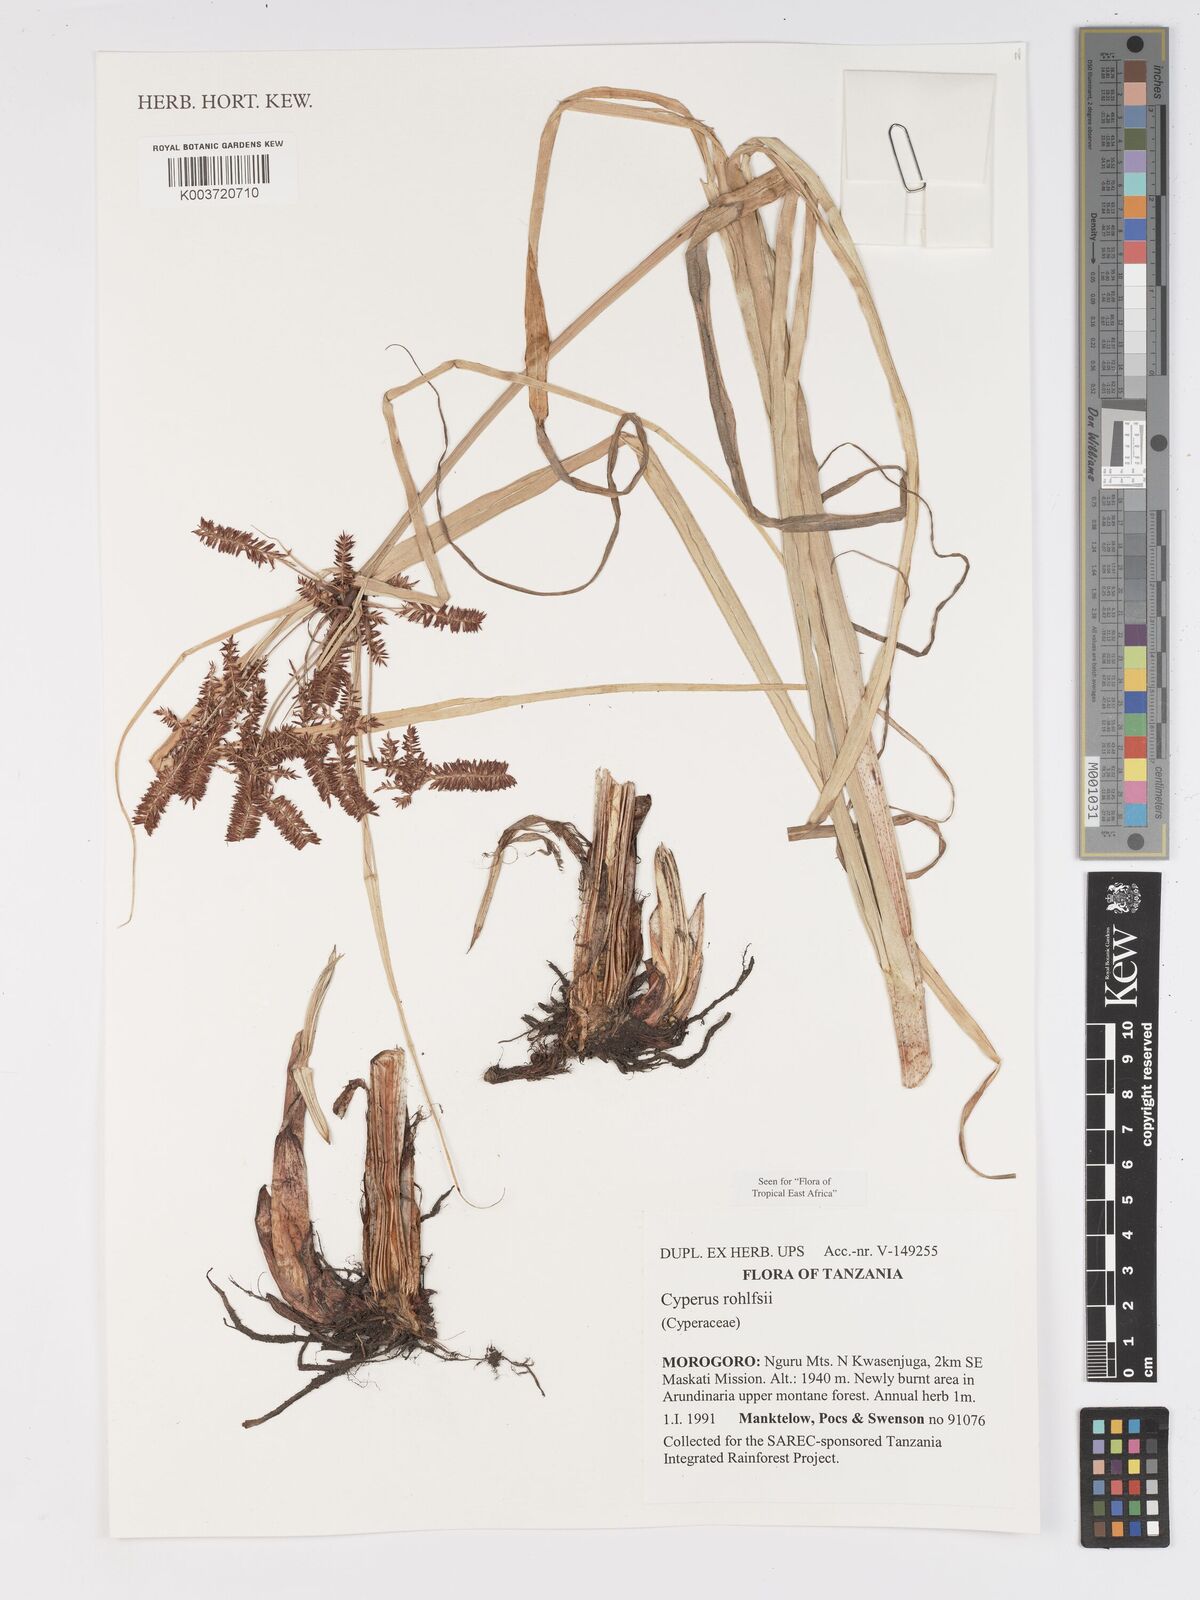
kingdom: Plantae
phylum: Tracheophyta
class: Liliopsida
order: Poales
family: Cyperaceae
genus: Cyperus
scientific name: Cyperus rohlfsii
